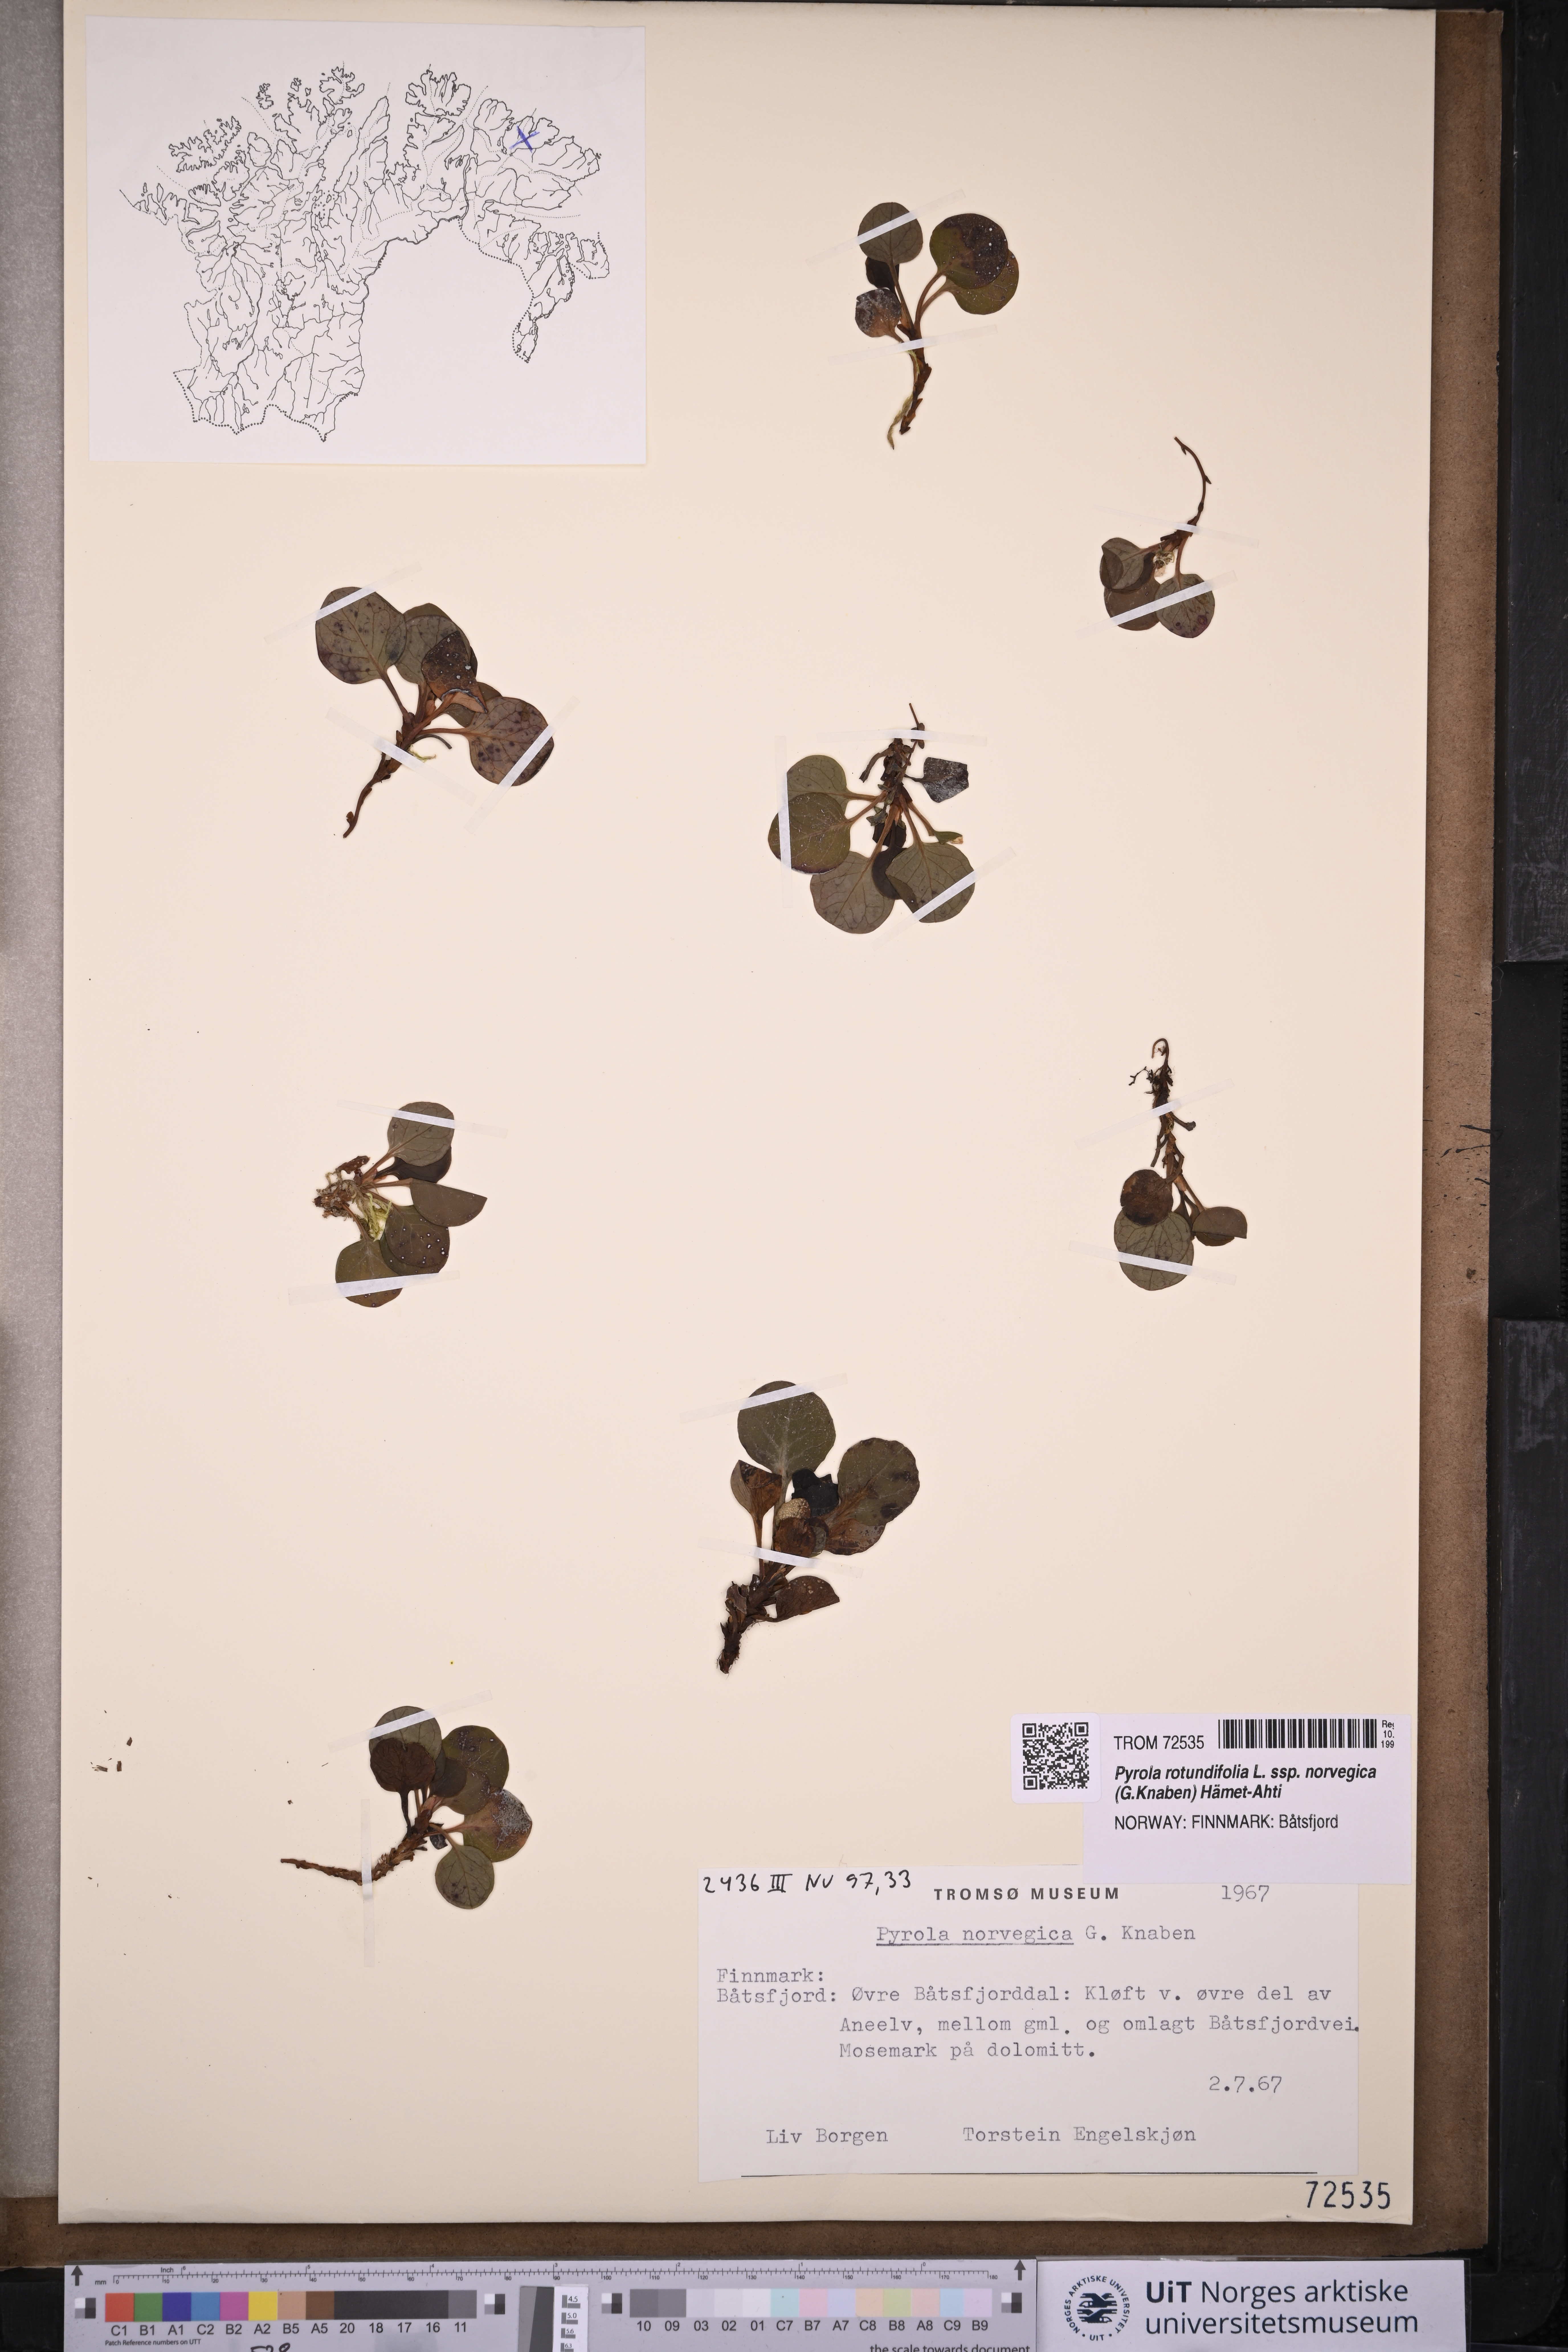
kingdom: Plantae
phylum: Tracheophyta
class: Magnoliopsida
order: Ericales
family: Ericaceae
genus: Pyrola
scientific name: Pyrola rotundifolia
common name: Round-leaved wintergreen
